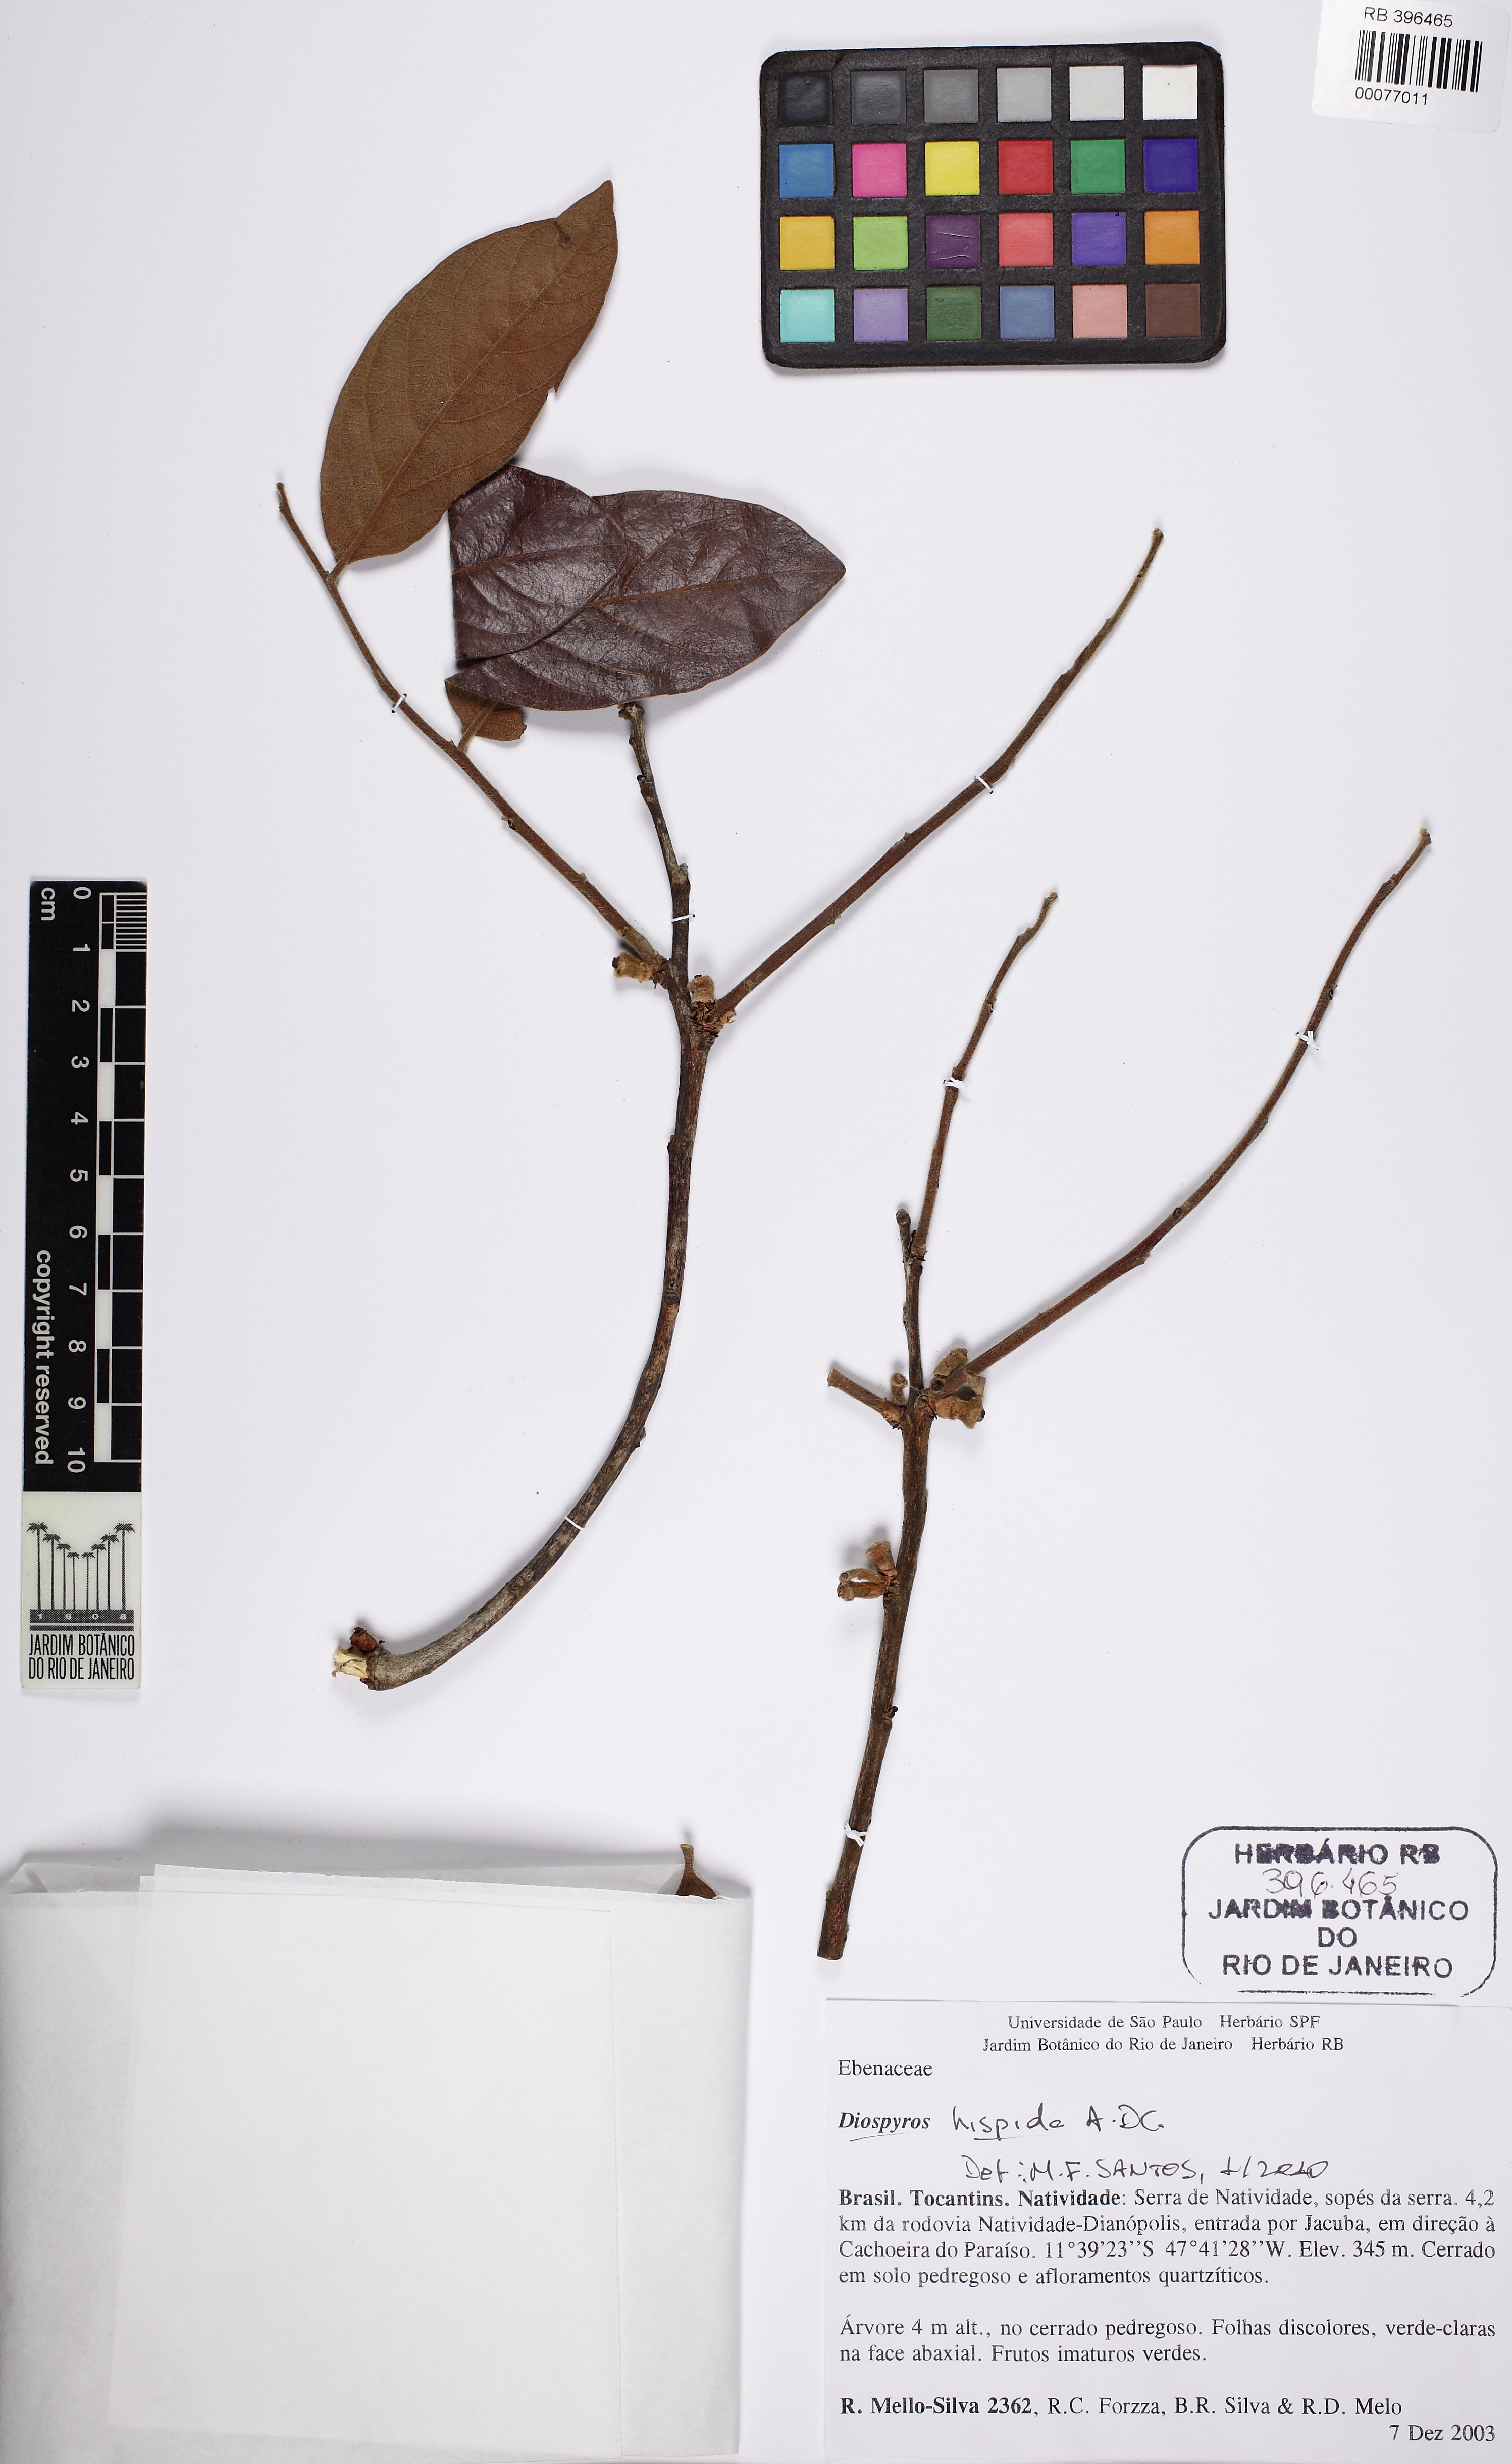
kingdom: Plantae
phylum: Tracheophyta
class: Magnoliopsida
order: Ericales
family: Ebenaceae
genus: Diospyros
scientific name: Diospyros lasiocalyx
